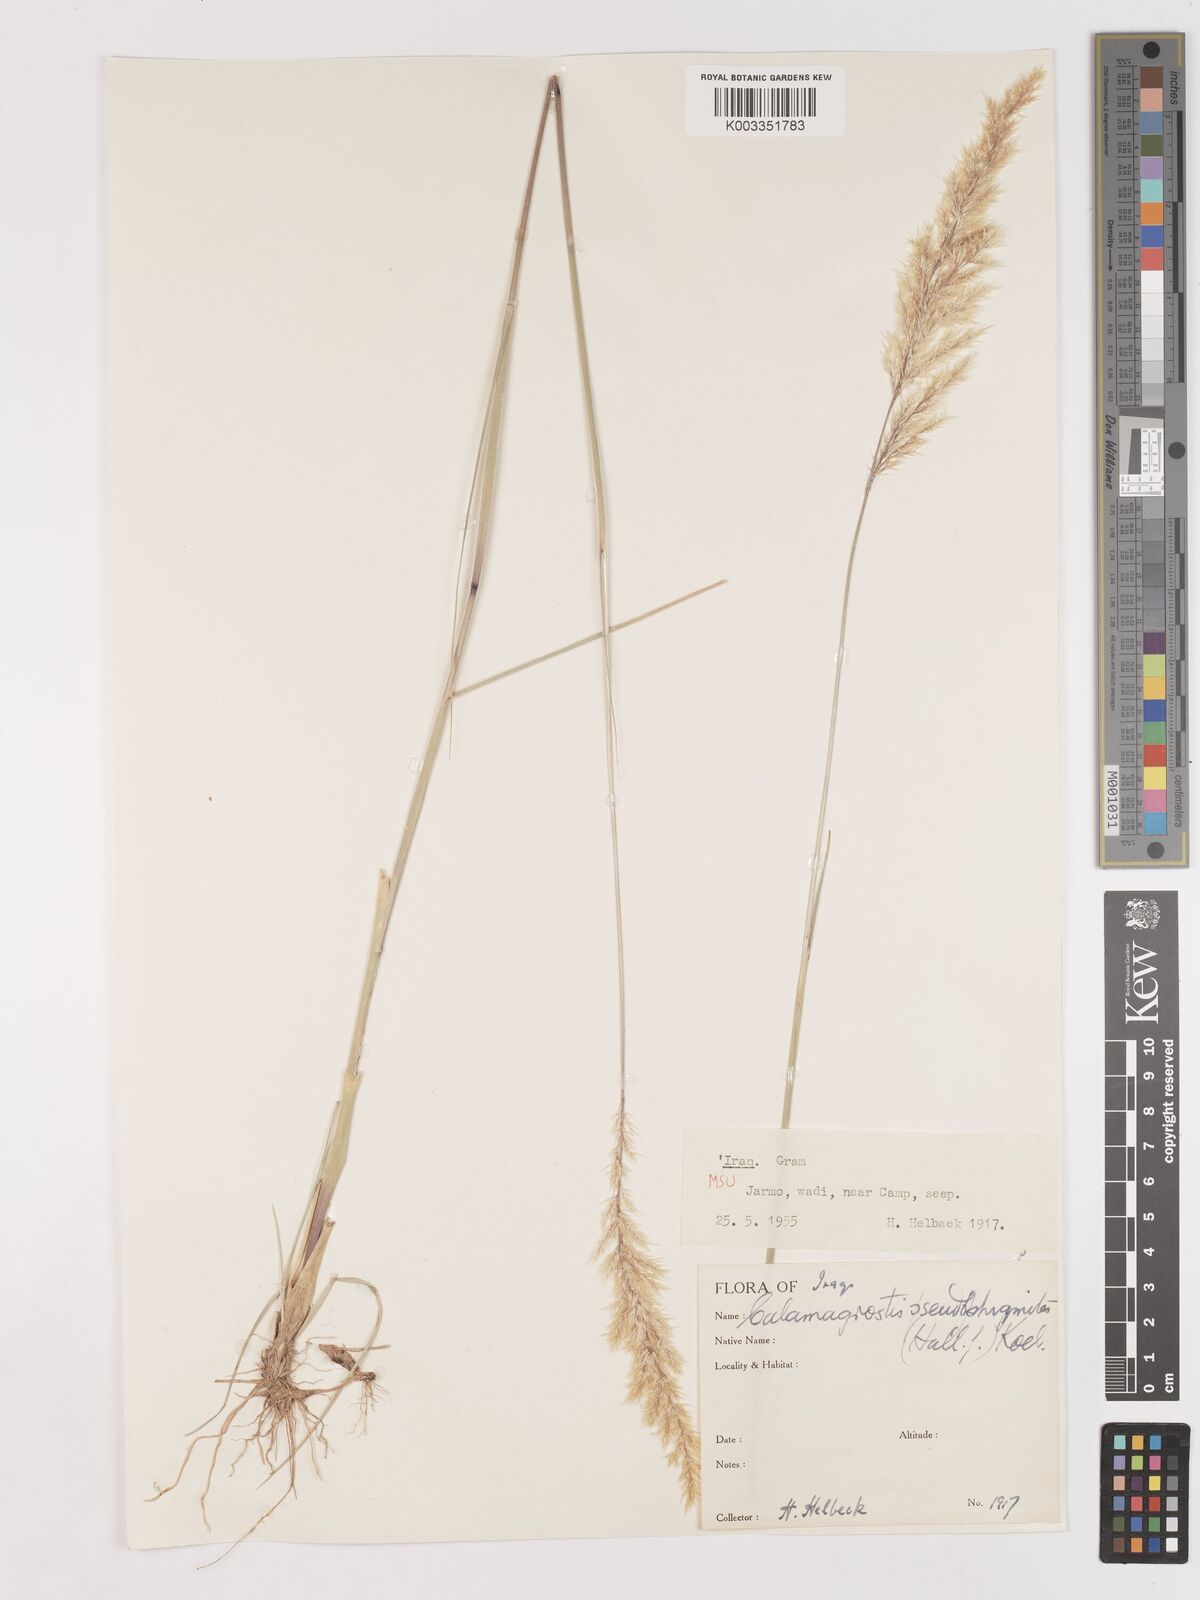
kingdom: Plantae
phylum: Tracheophyta
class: Liliopsida
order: Poales
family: Poaceae
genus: Calamagrostis
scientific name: Calamagrostis pseudophragmites
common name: Coastal small-reed
